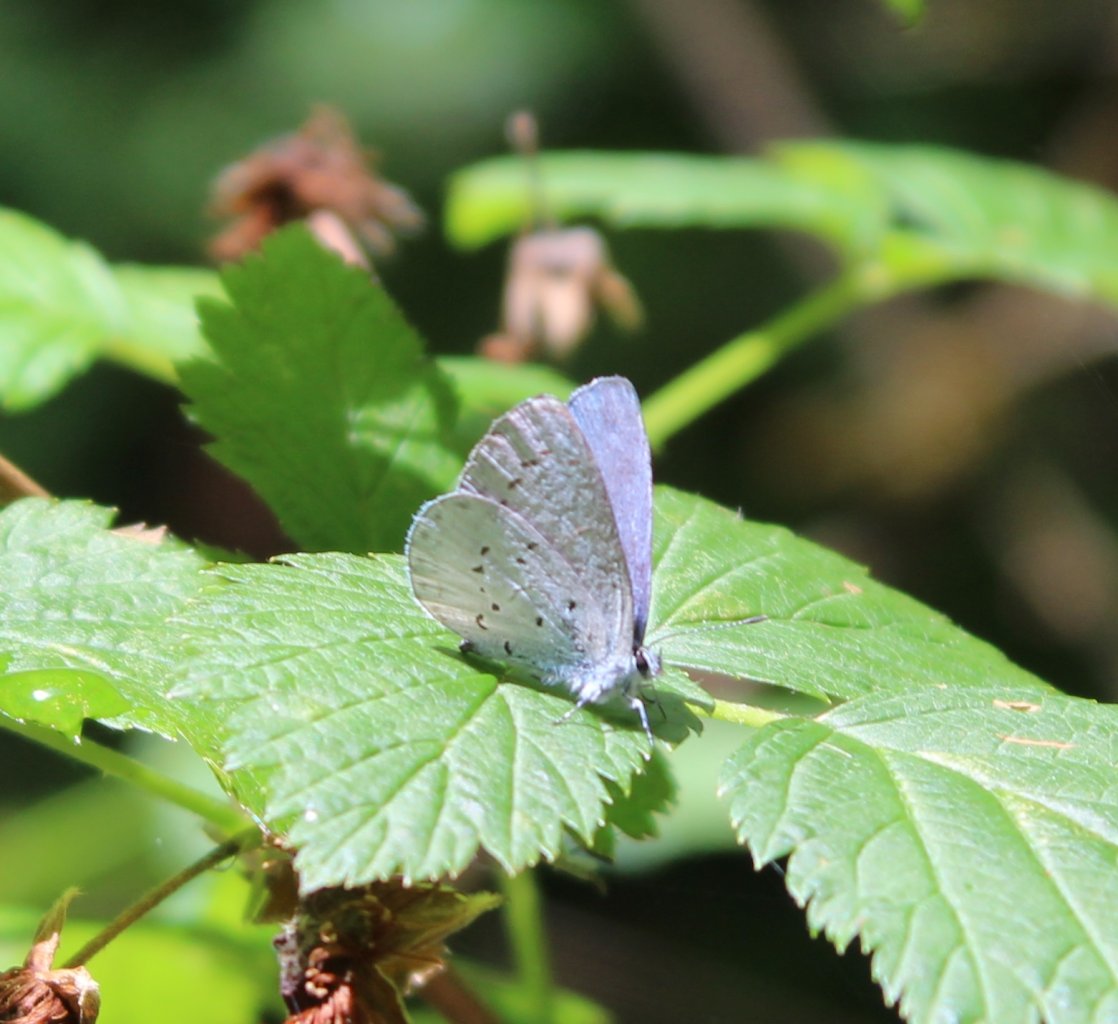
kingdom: Animalia
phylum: Arthropoda
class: Insecta
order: Lepidoptera
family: Lycaenidae
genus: Celastrina
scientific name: Celastrina ladon
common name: Echo Azure
